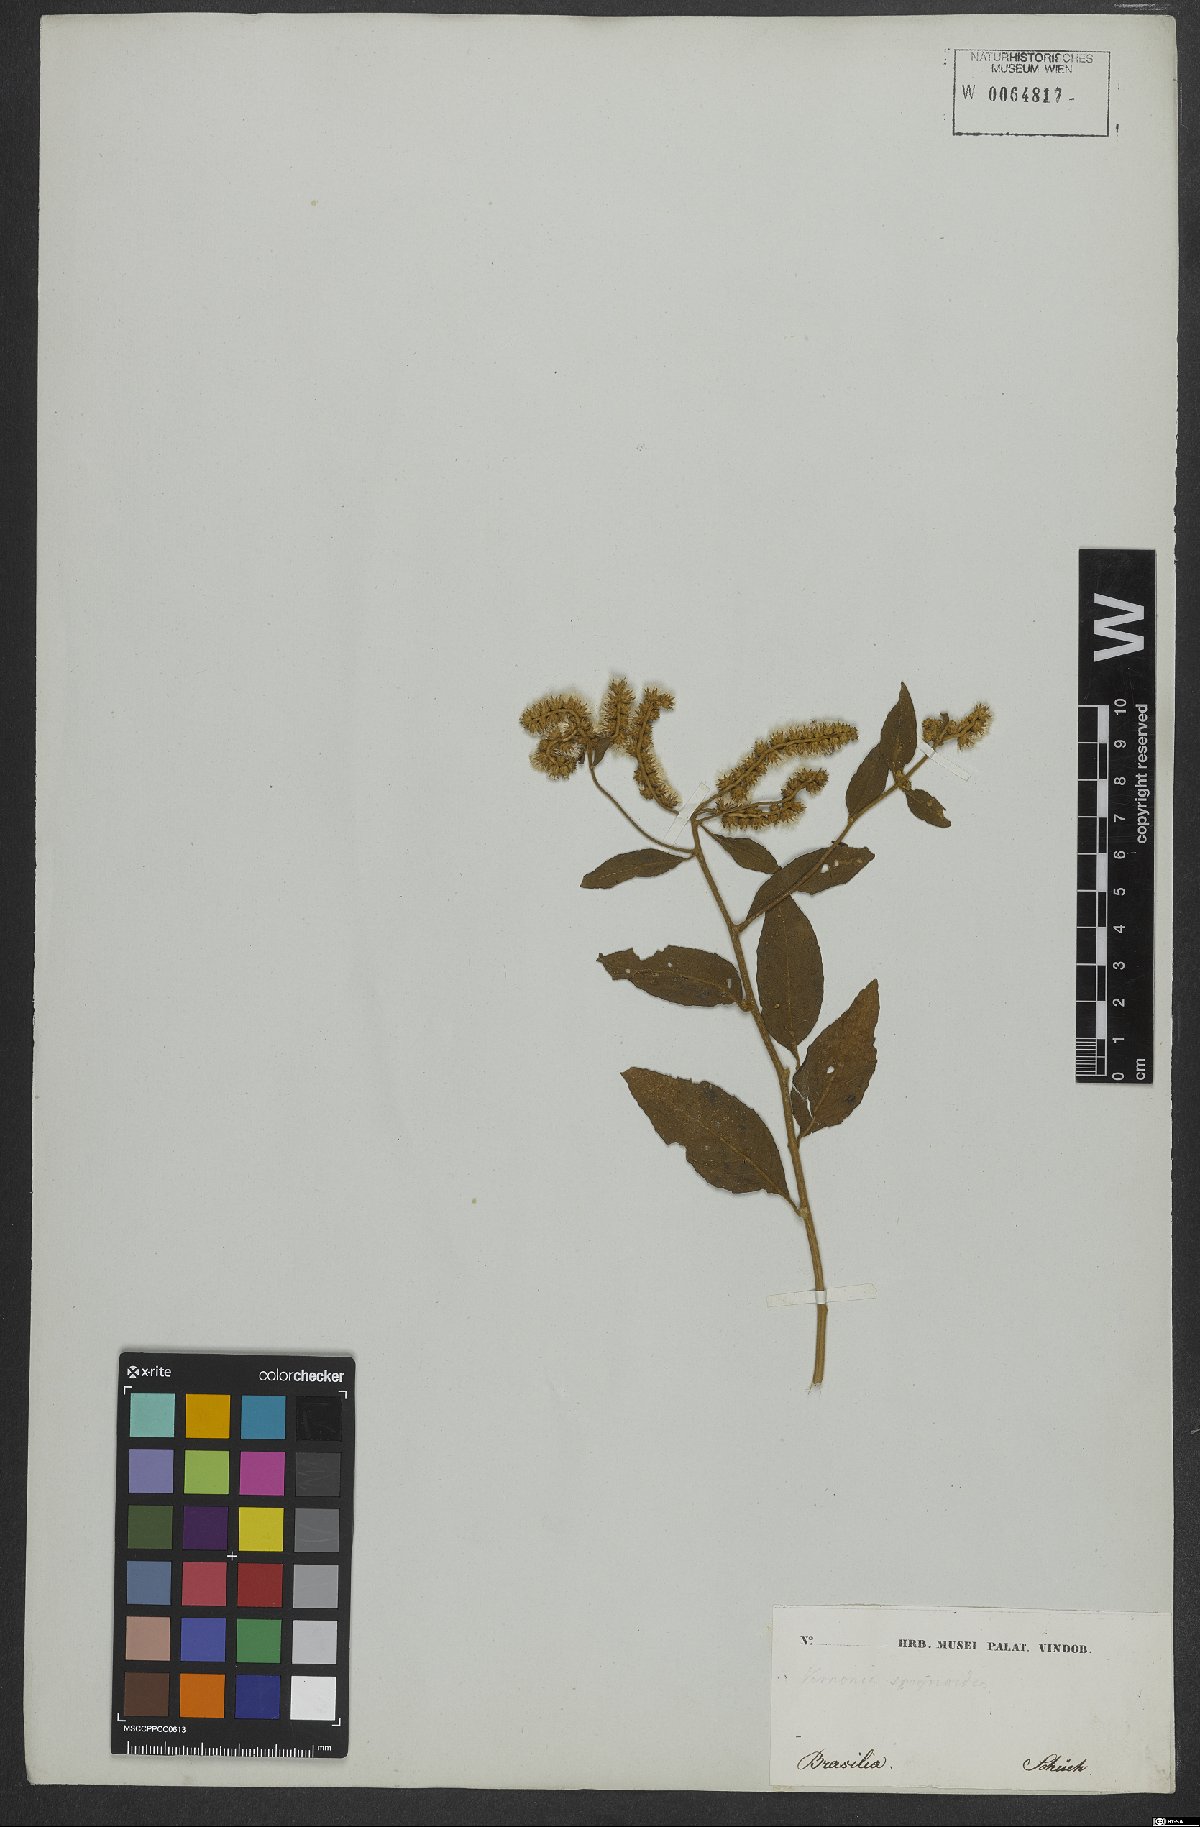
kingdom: Plantae
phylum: Tracheophyta
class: Magnoliopsida
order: Asterales
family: Asteraceae
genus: Cyrtocymura
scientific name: Cyrtocymura scorpioides
